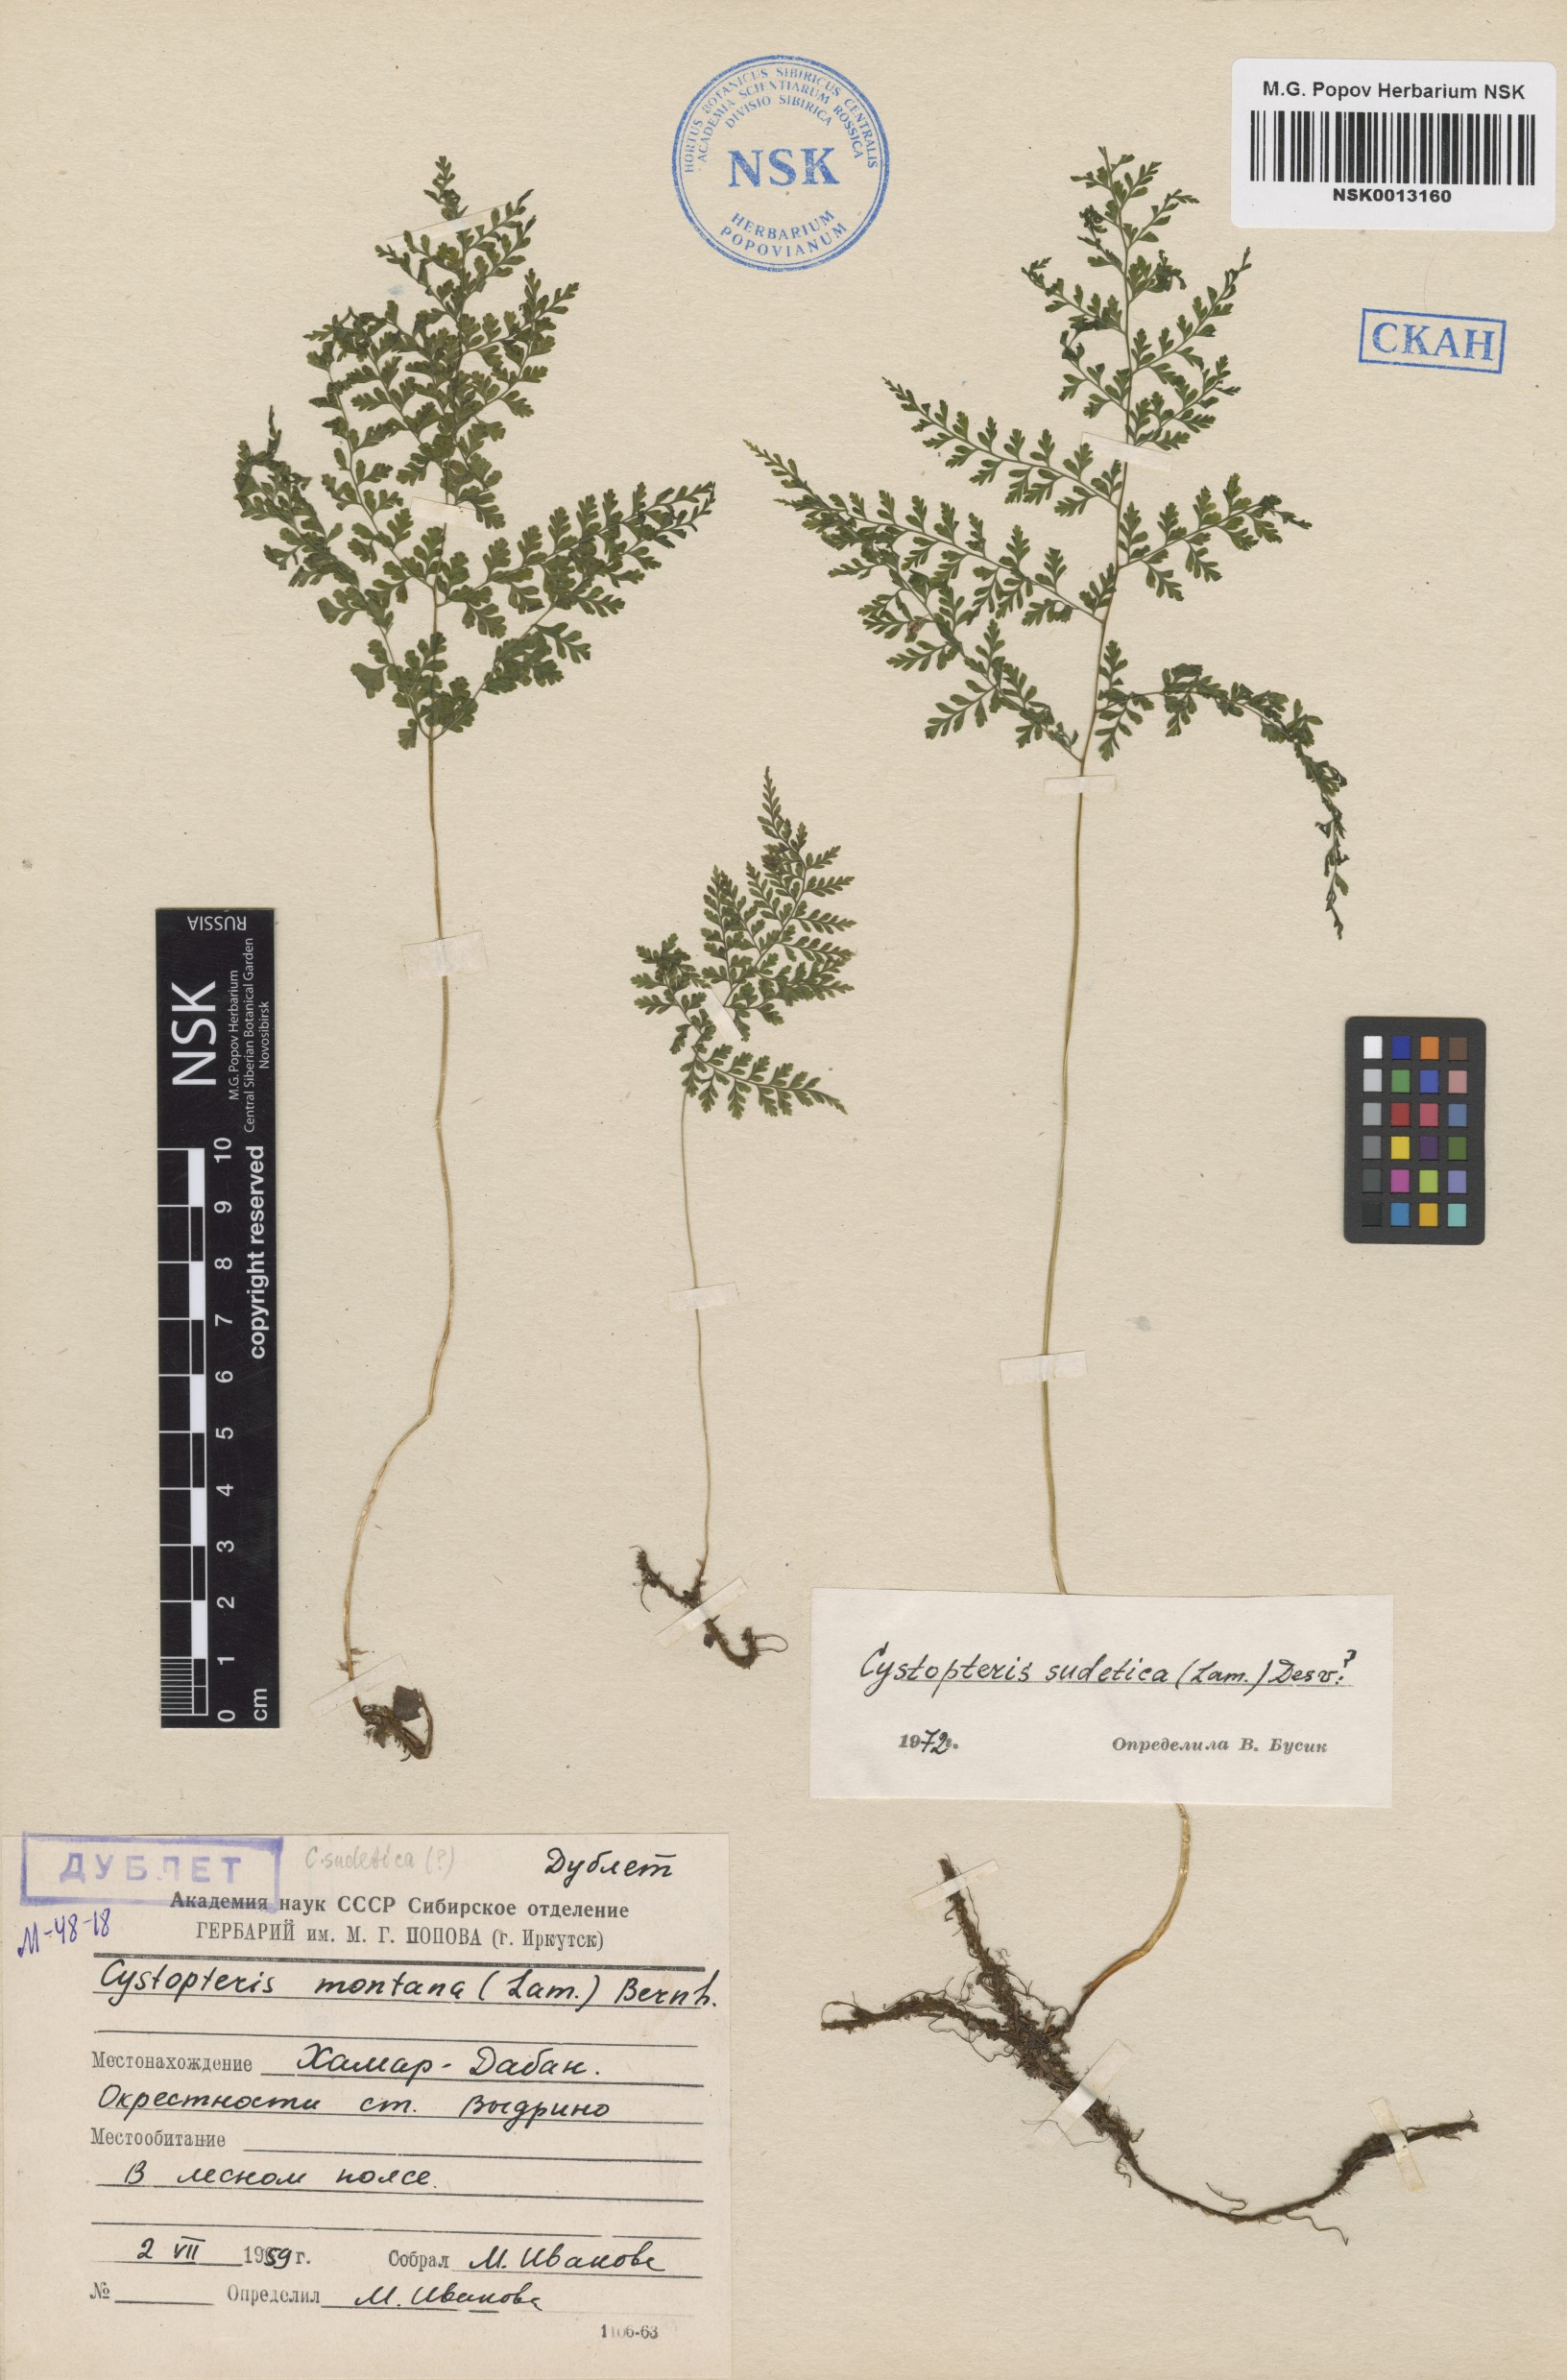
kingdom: Plantae
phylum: Tracheophyta
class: Polypodiopsida
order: Polypodiales
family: Cystopteridaceae
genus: Cystopteris
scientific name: Cystopteris montana
